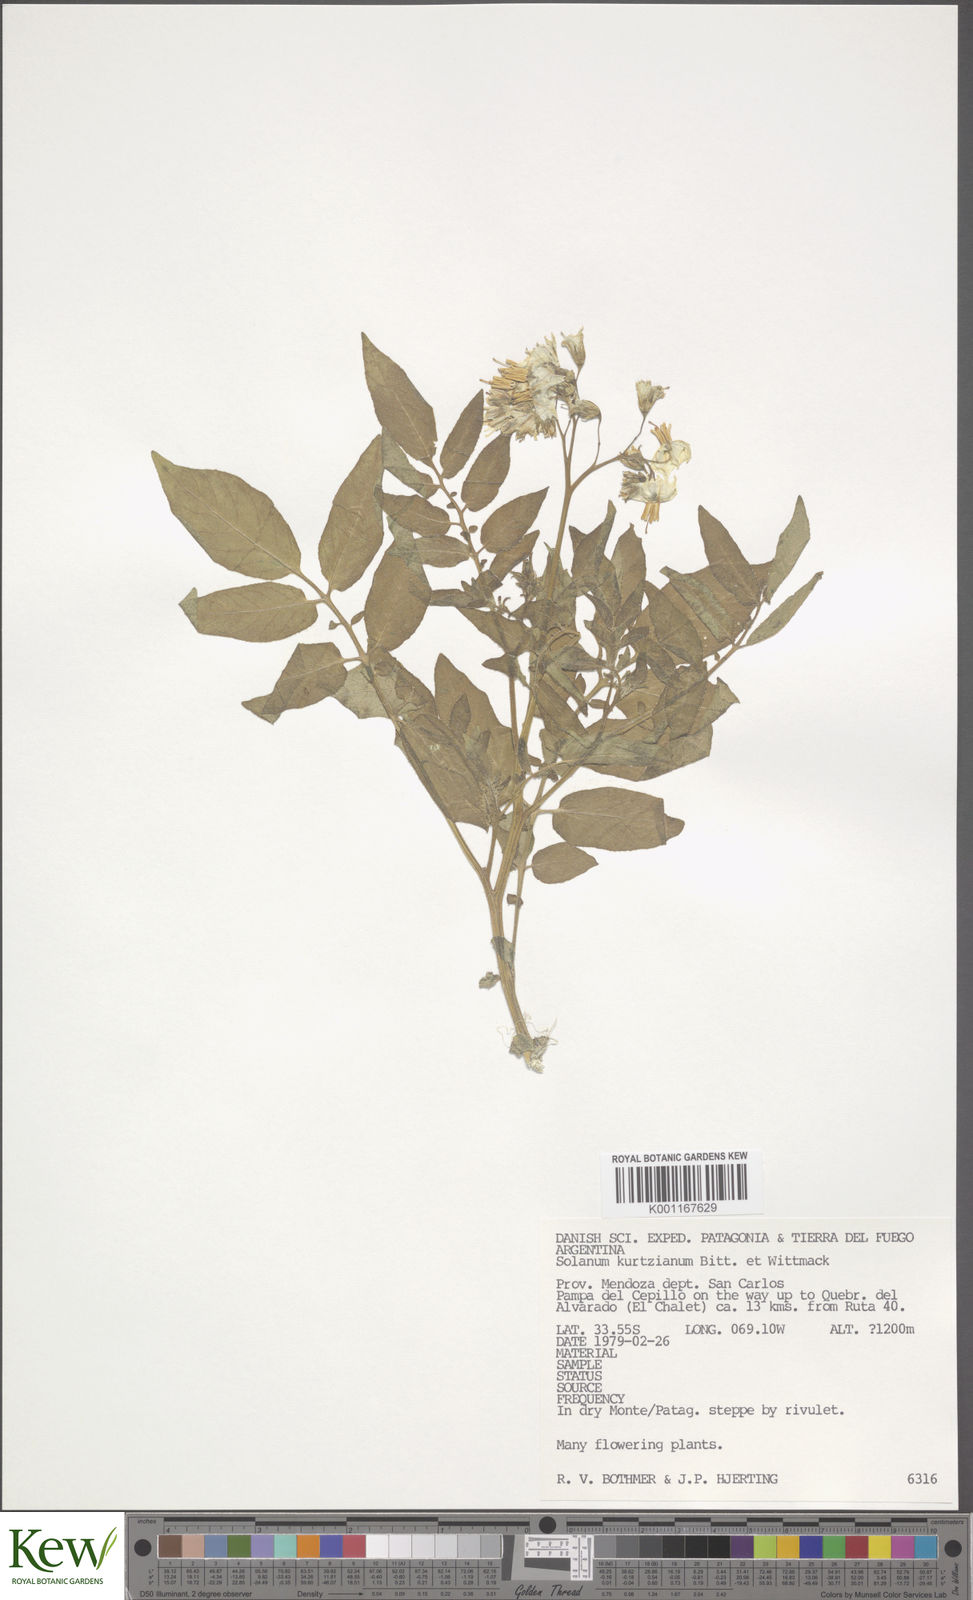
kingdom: Plantae
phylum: Tracheophyta
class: Magnoliopsida
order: Solanales
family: Solanaceae
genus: Solanum
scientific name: Solanum kurtzianum
